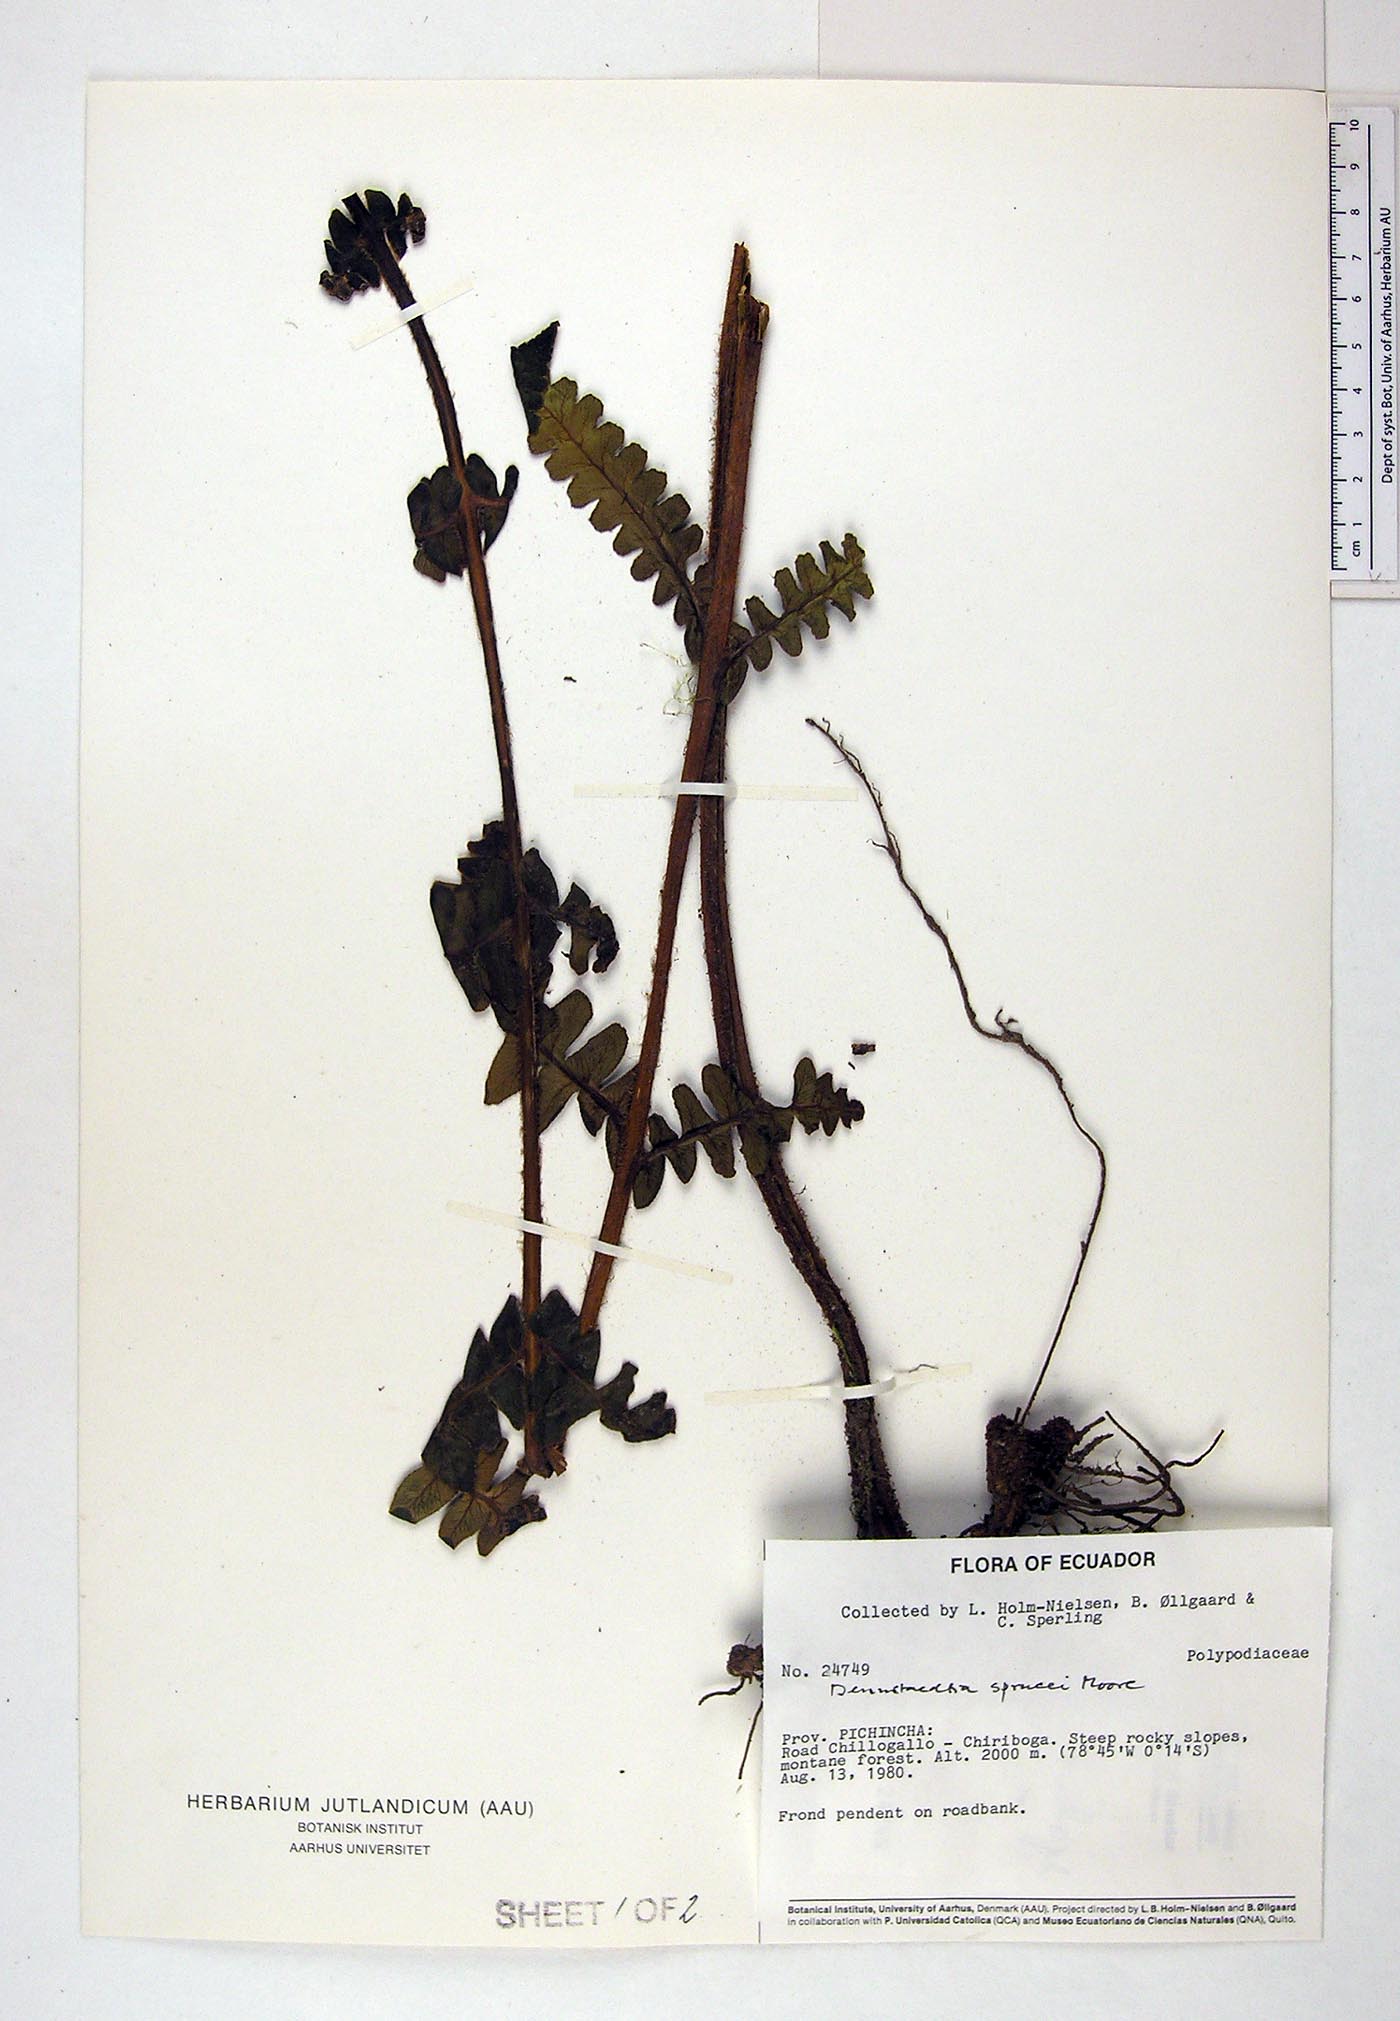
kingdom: Plantae
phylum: Tracheophyta
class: Polypodiopsida
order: Polypodiales
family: Dennstaedtiaceae
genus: Dennstaedtia
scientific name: Dennstaedtia sprucei
